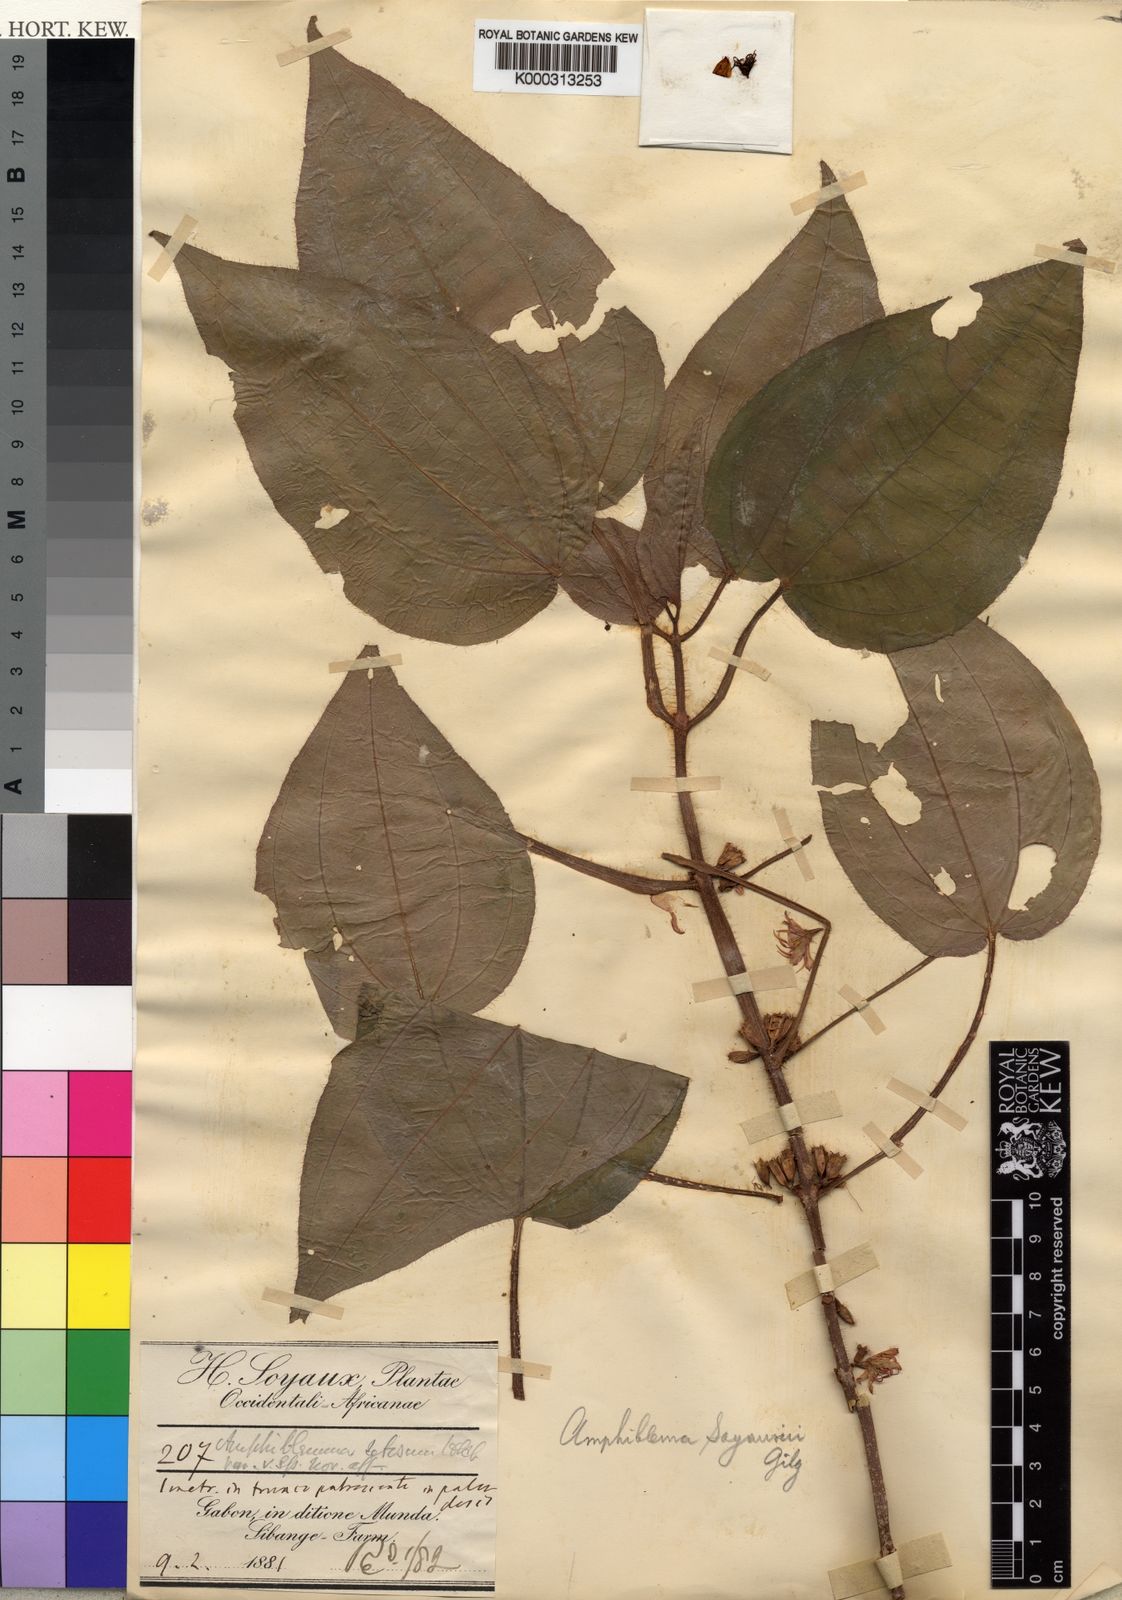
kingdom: Plantae
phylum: Tracheophyta
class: Magnoliopsida
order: Myrtales
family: Melastomataceae
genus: Amphiblemma
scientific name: Amphiblemma
